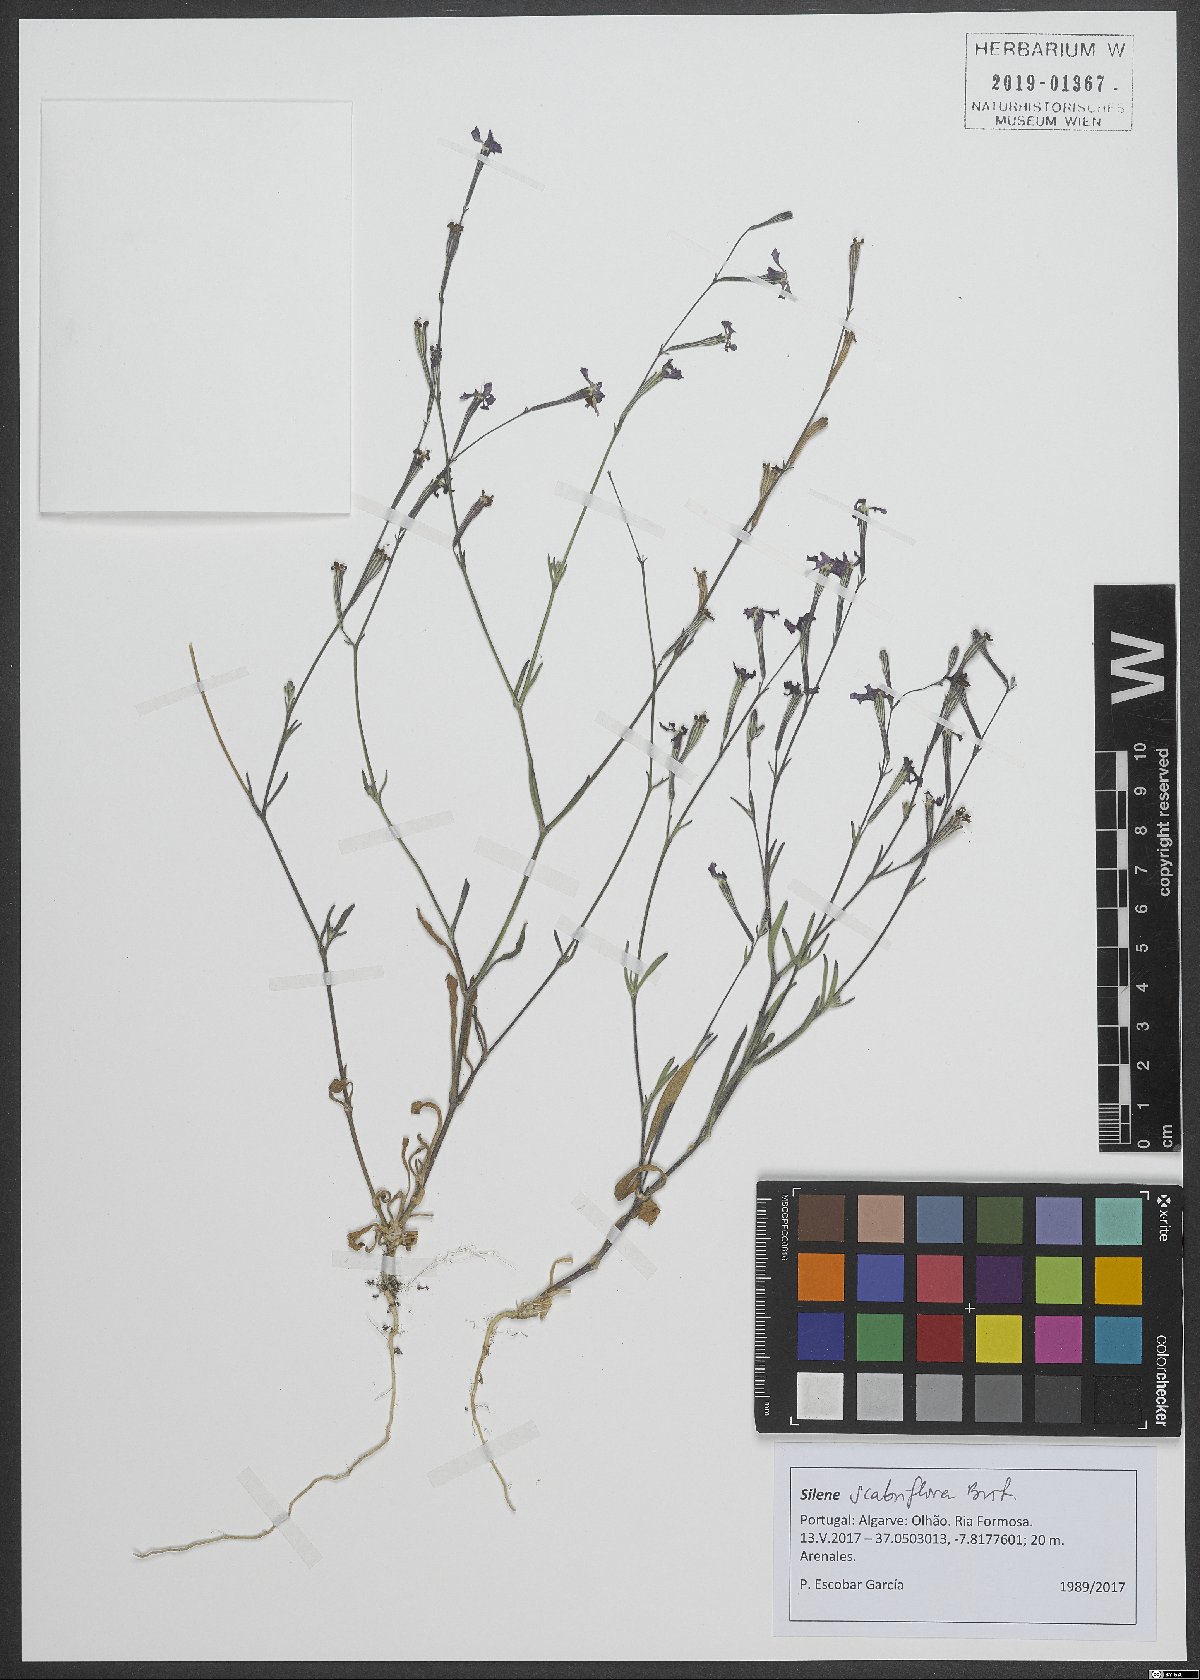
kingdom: Plantae
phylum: Tracheophyta
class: Magnoliopsida
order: Caryophyllales
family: Caryophyllaceae
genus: Silene
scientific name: Silene scabriflora
